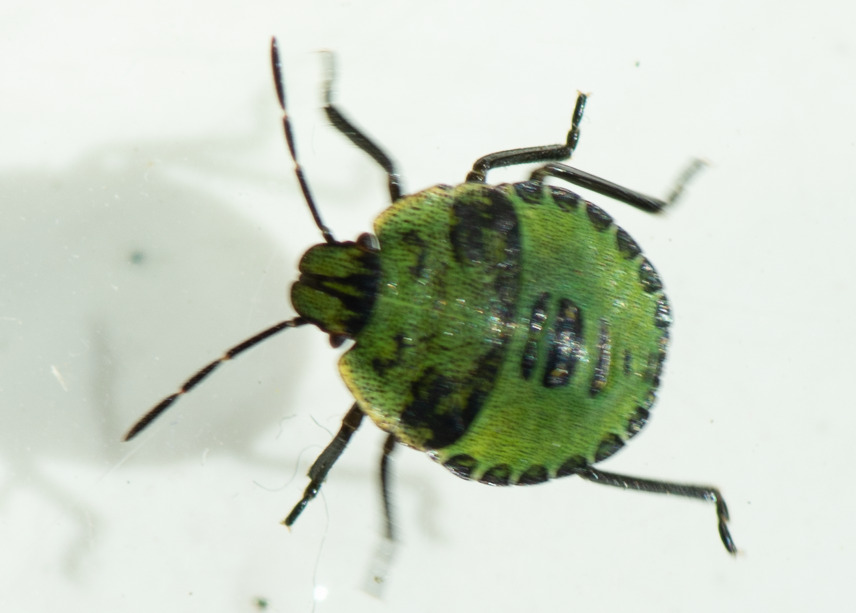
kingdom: Animalia
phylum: Arthropoda
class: Insecta
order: Hemiptera
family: Pentatomidae
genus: Palomena
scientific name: Palomena prasina
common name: Grøn bredtæge
